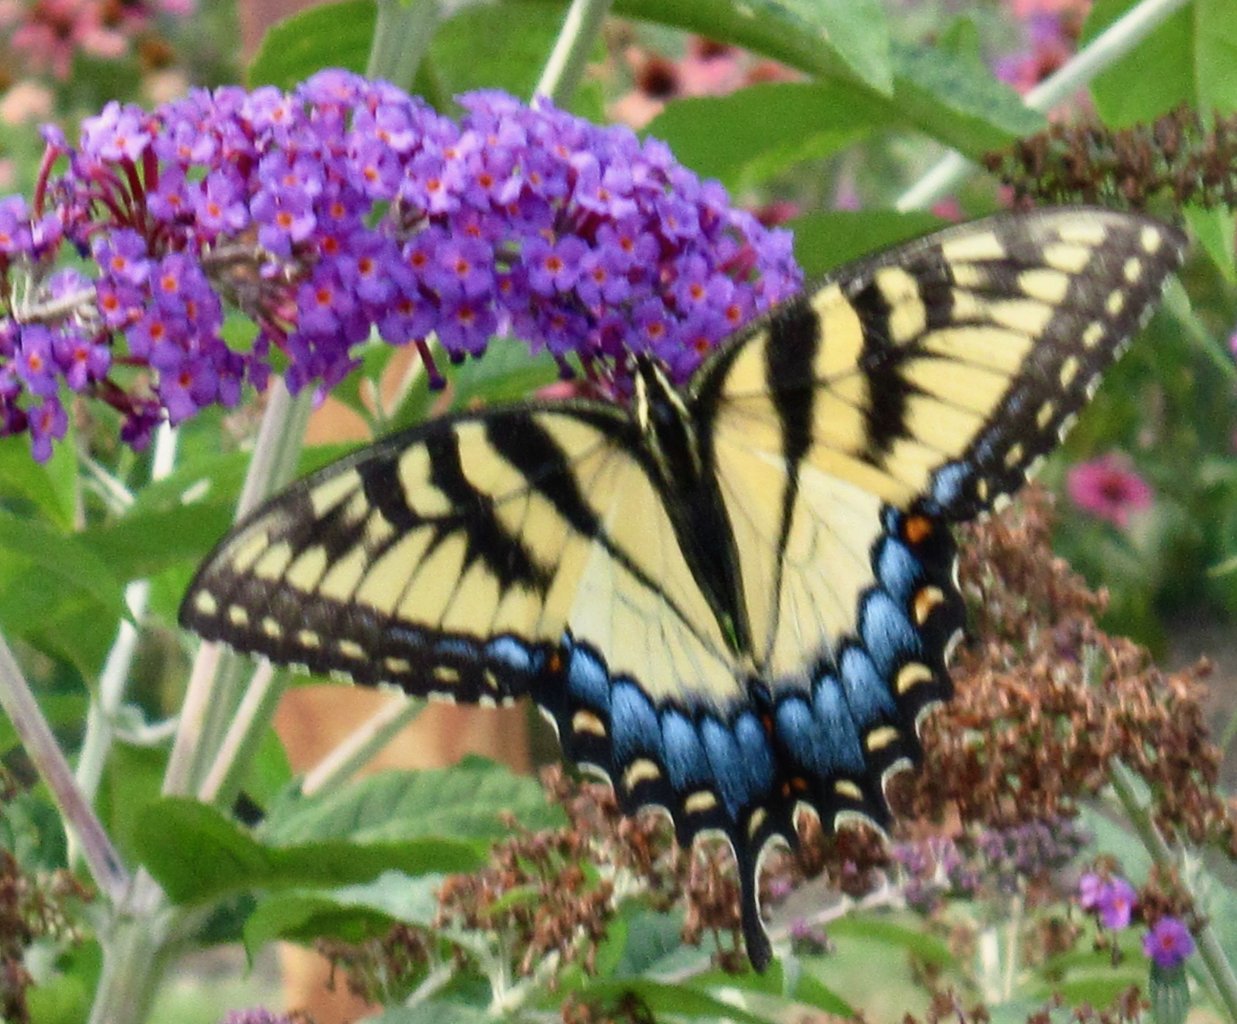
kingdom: Animalia
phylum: Arthropoda
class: Insecta
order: Lepidoptera
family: Papilionidae
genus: Pterourus
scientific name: Pterourus glaucus
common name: Eastern Tiger Swallowtail
